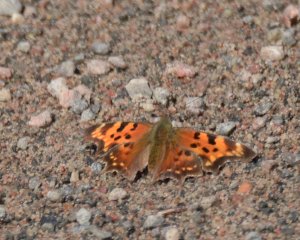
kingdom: Animalia
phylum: Arthropoda
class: Insecta
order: Lepidoptera
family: Nymphalidae
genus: Polygonia
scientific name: Polygonia faunus
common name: Green Comma
